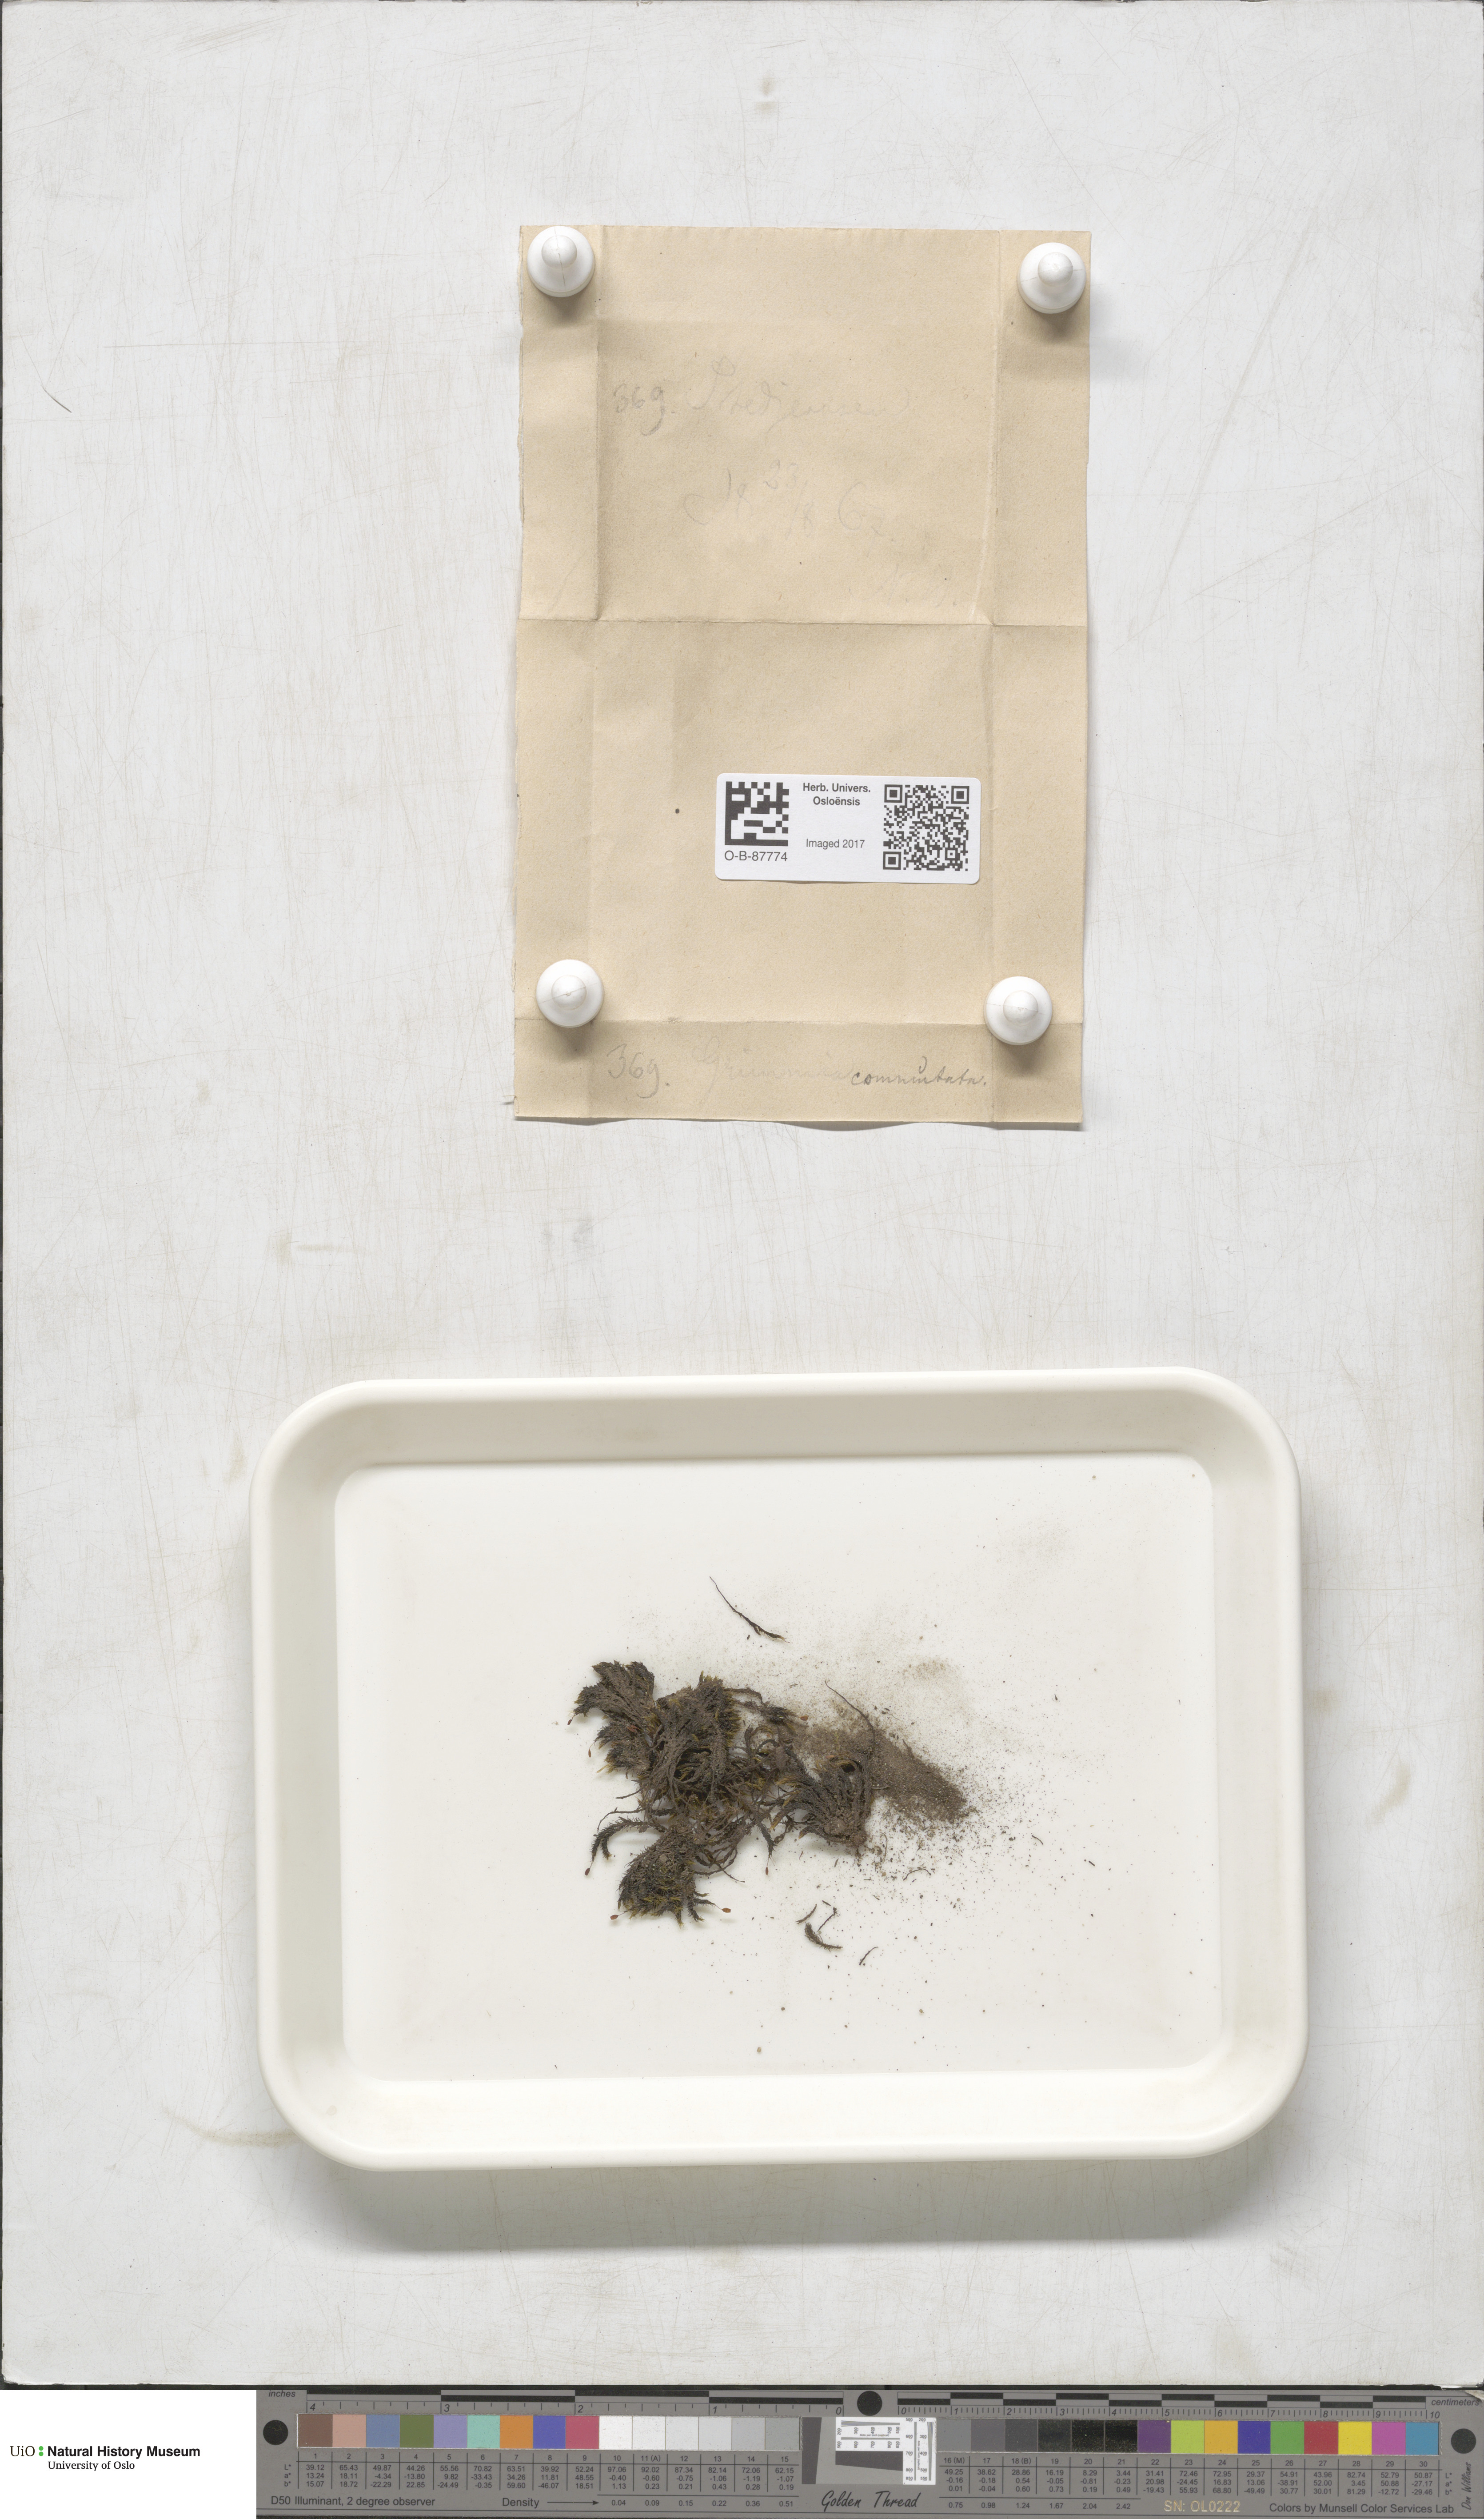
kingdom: Plantae
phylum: Bryophyta
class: Bryopsida
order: Grimmiales
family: Grimmiaceae
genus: Grimmia
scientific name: Grimmia ovalis
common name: Oval grimmia
